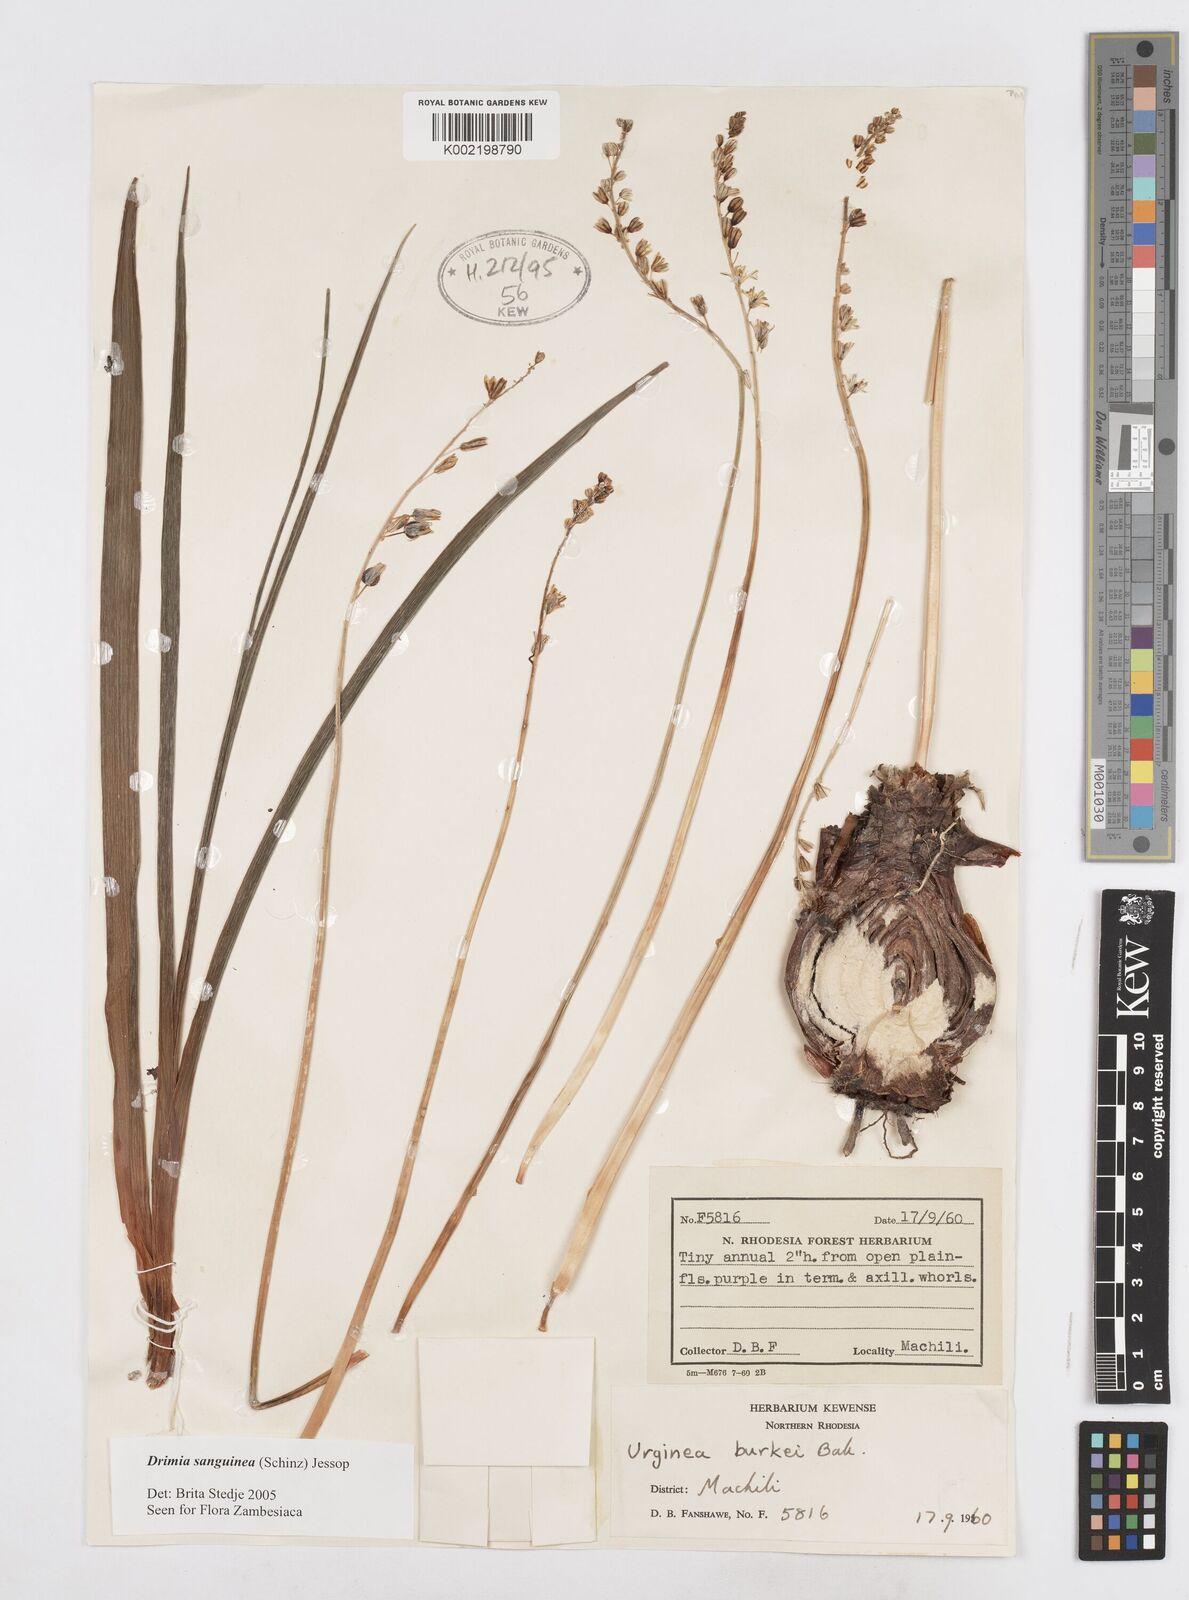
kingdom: Plantae
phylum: Tracheophyta
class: Liliopsida
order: Asparagales
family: Asparagaceae
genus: Drimia
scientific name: Drimia sanguinea
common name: Transvaal slangkop
